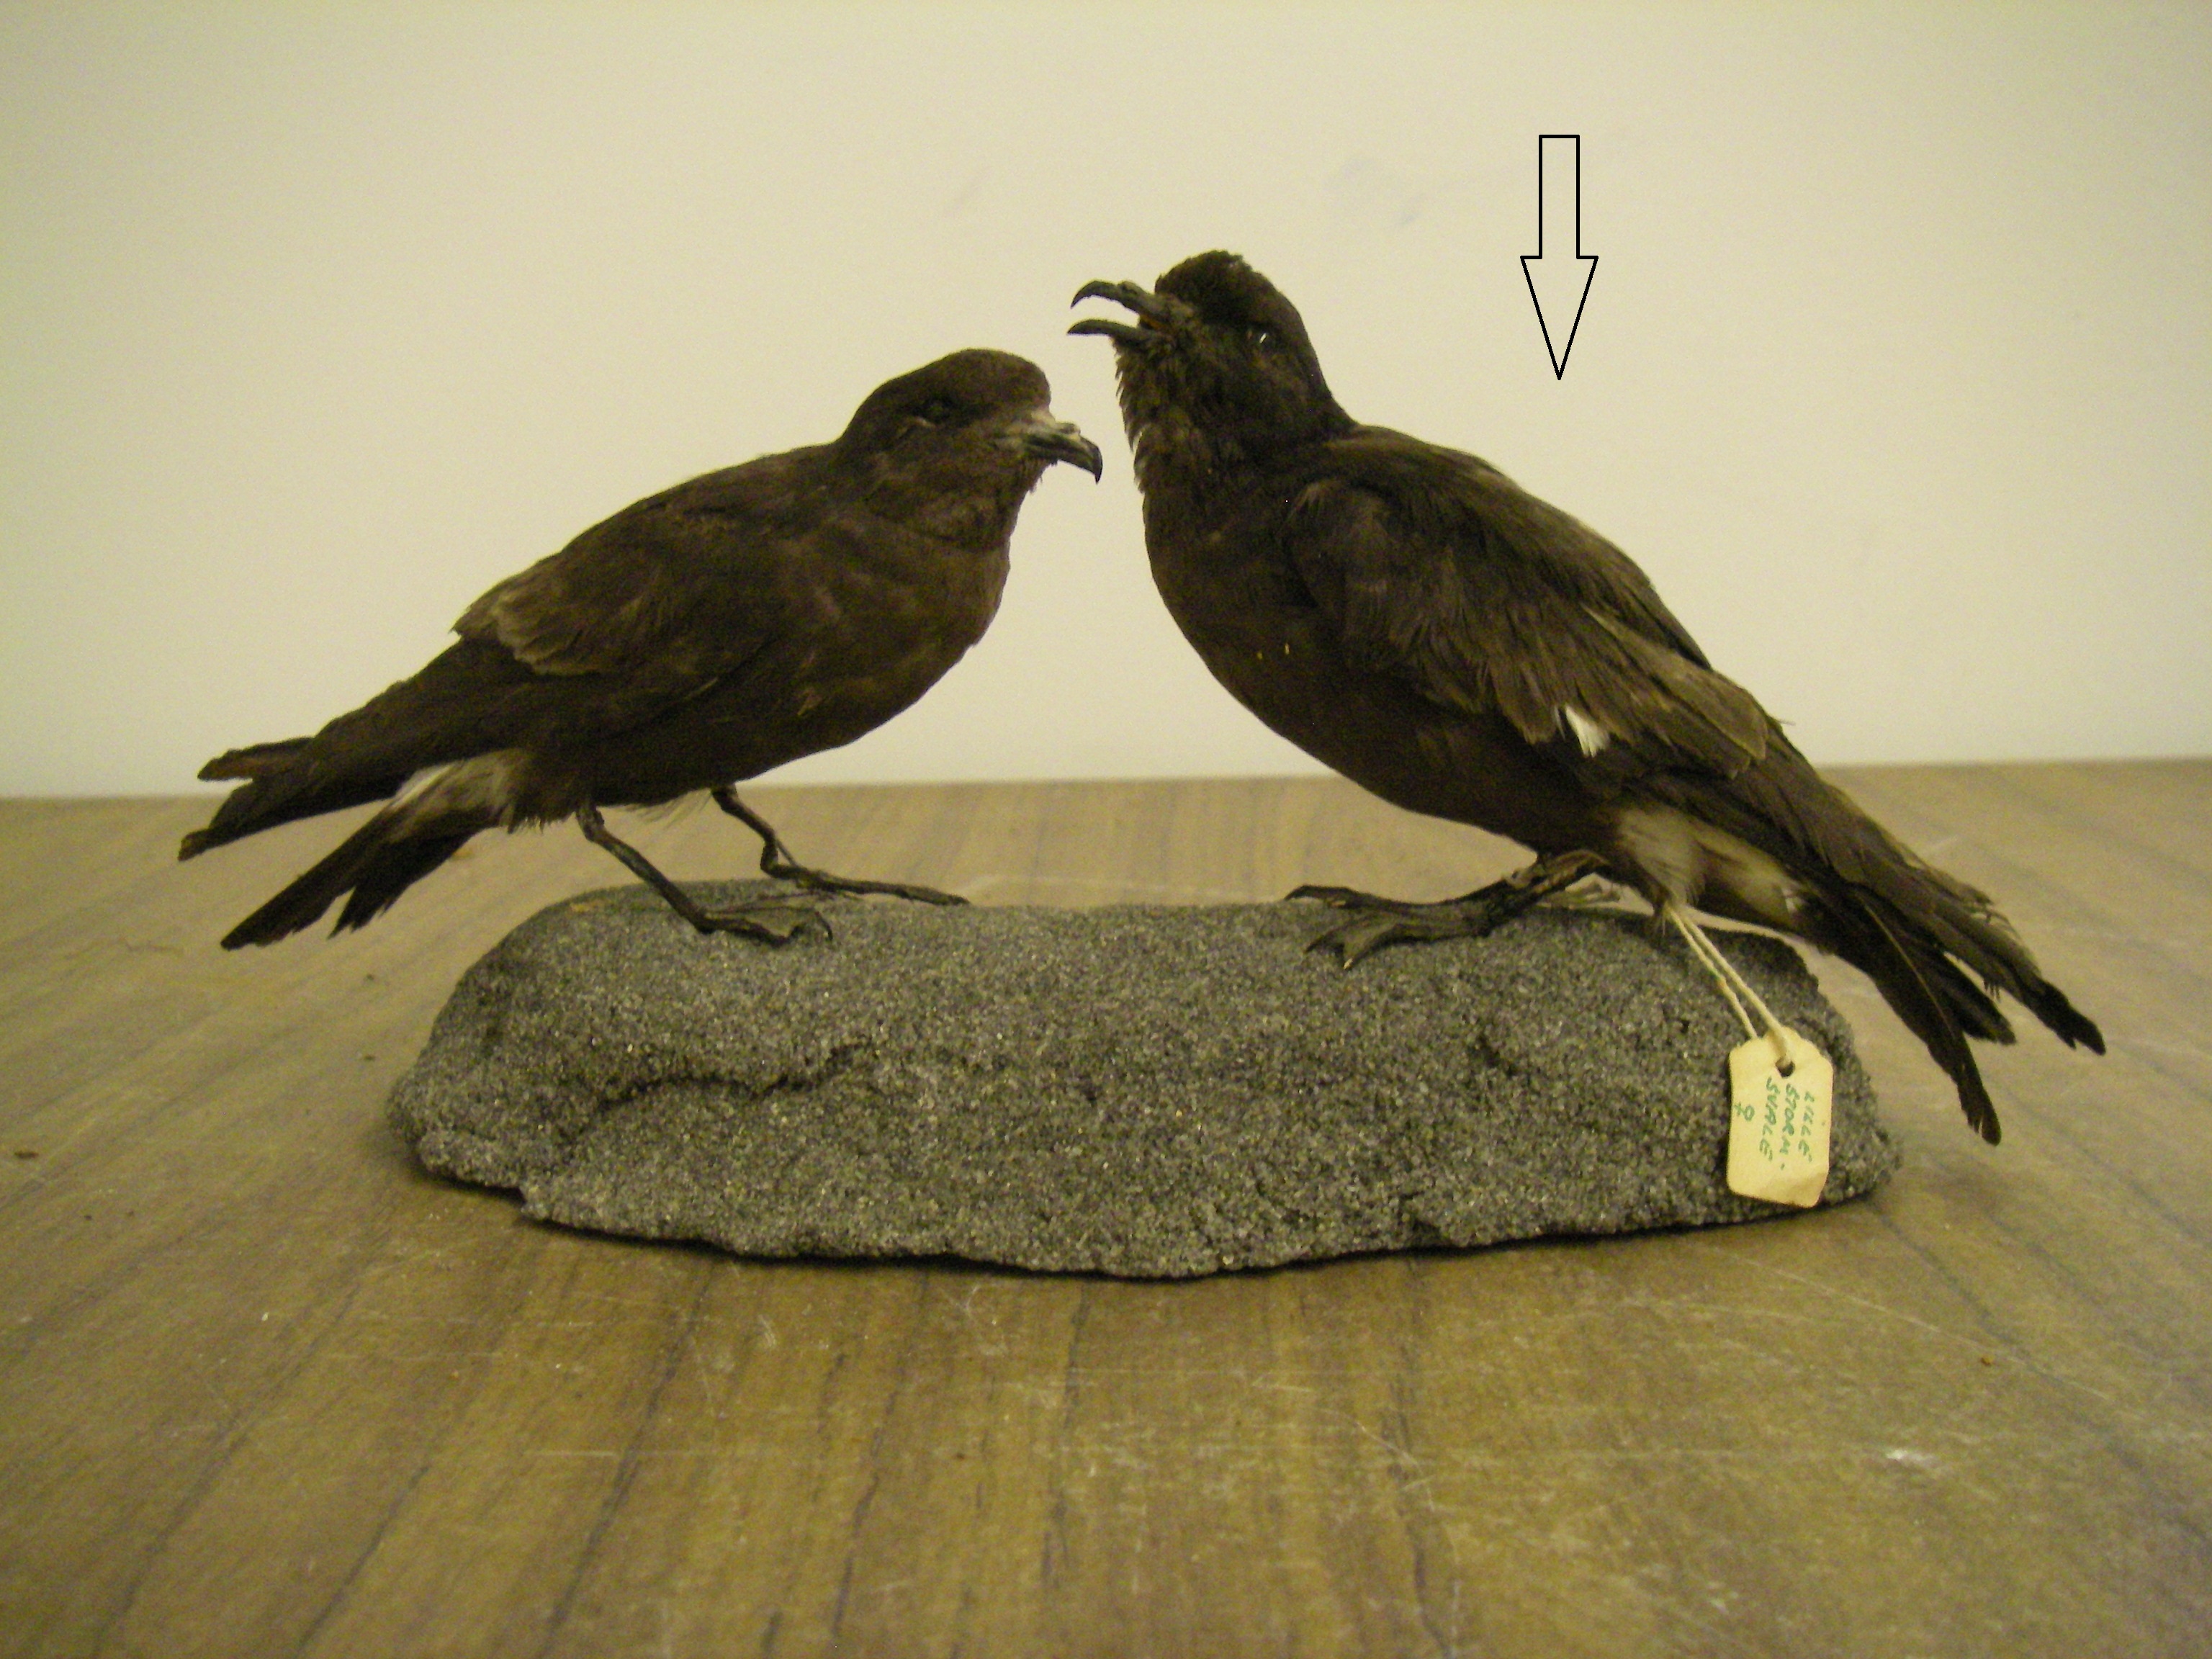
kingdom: Animalia
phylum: Chordata
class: Aves
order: Procellariiformes
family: Hydrobatidae
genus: Hydrobates
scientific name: Hydrobates pelagicus
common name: European storm-petrel
